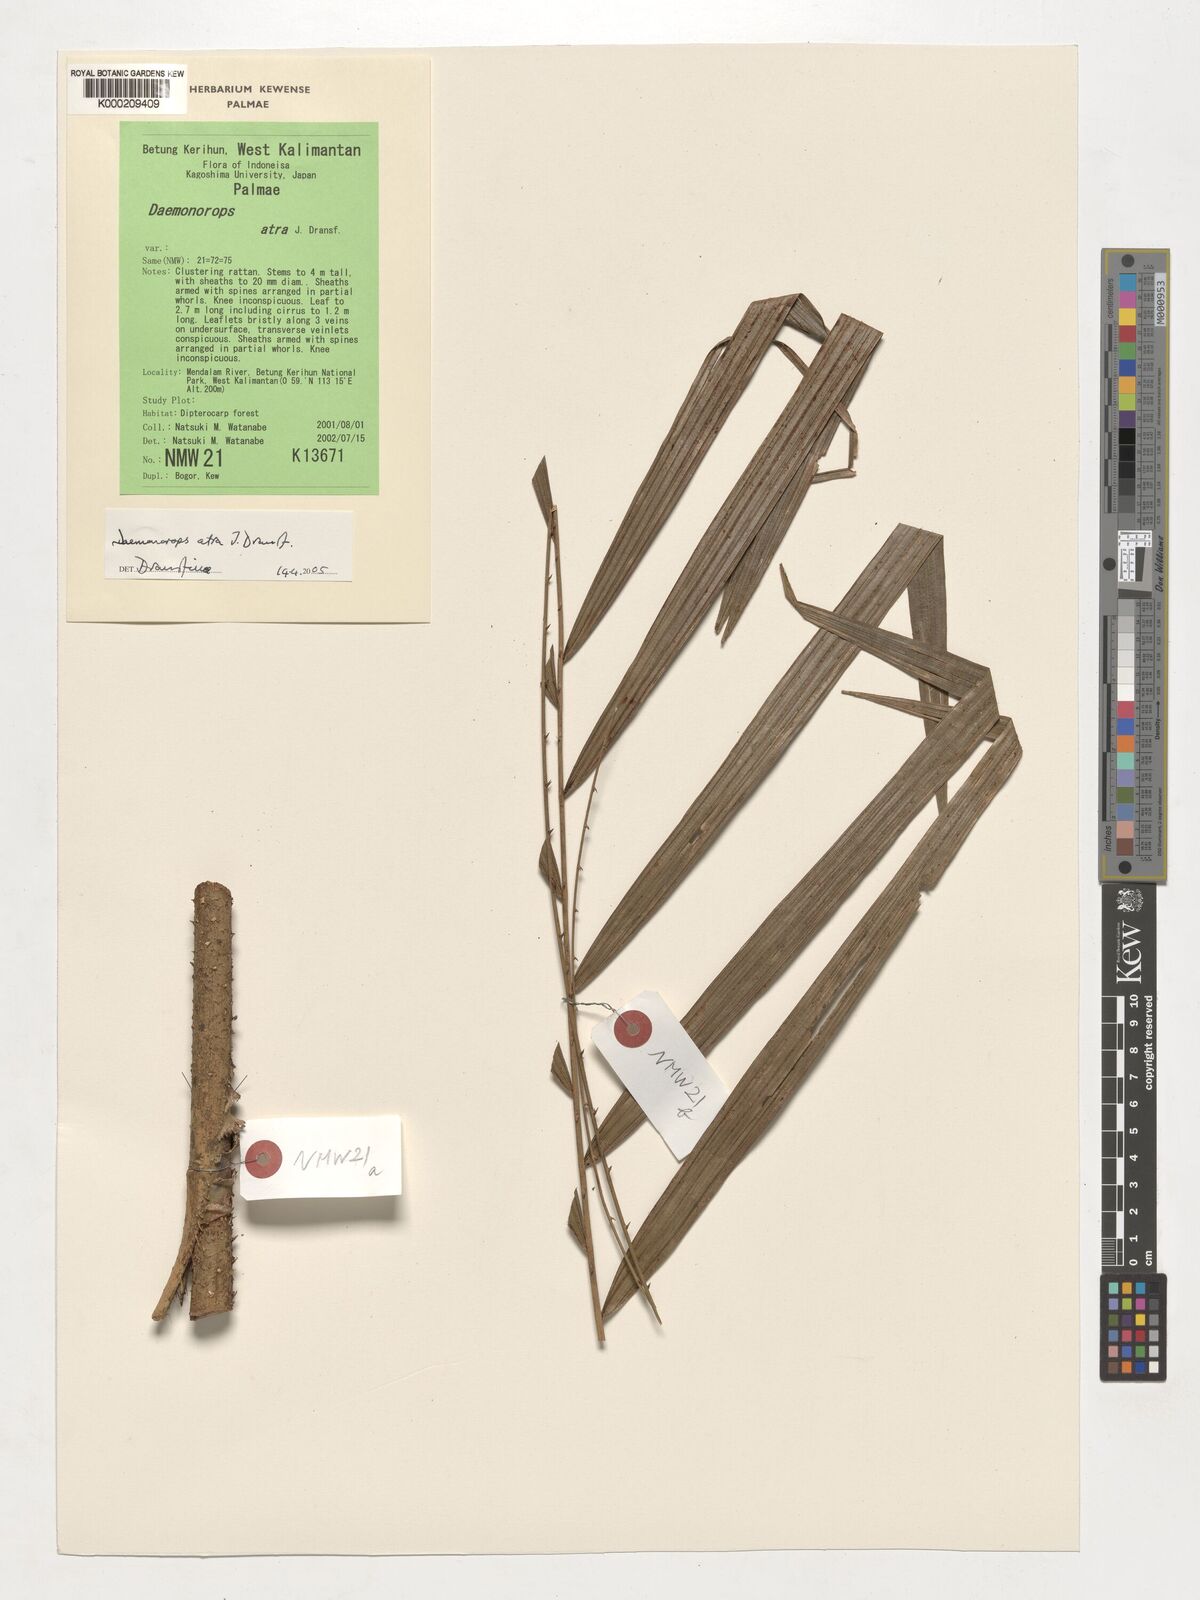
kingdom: Plantae
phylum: Tracheophyta
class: Liliopsida
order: Arecales
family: Arecaceae
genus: Calamus
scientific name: Calamus ater
